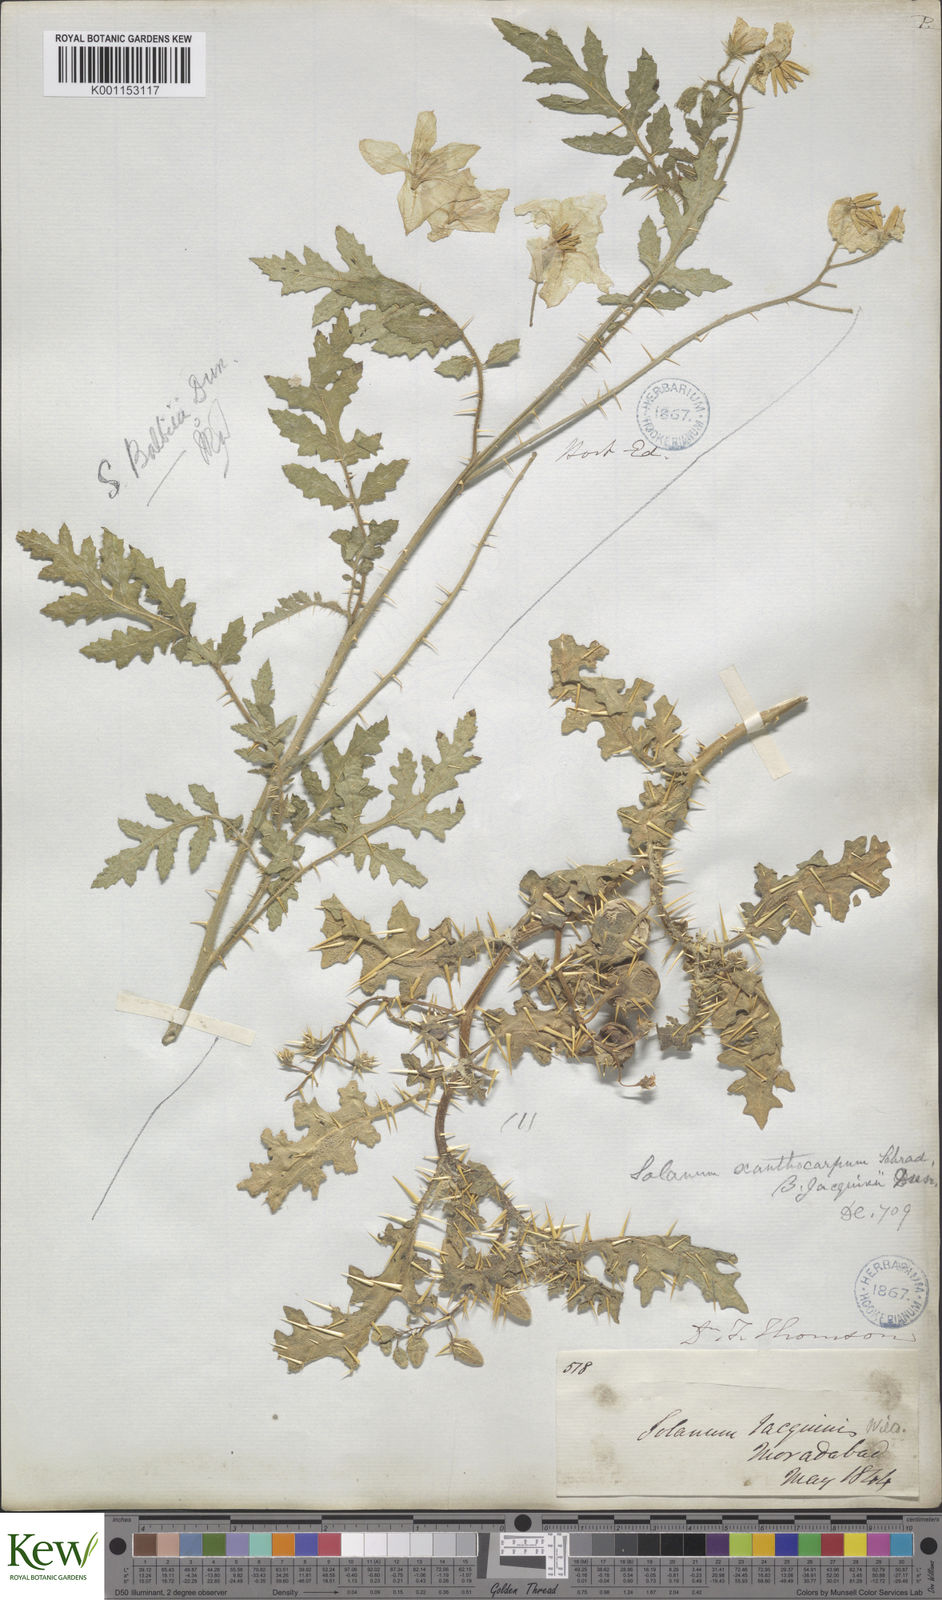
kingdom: Plantae
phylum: Tracheophyta
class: Magnoliopsida
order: Solanales
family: Solanaceae
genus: Solanum
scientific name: Solanum virginianum
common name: Surattense nightshade
